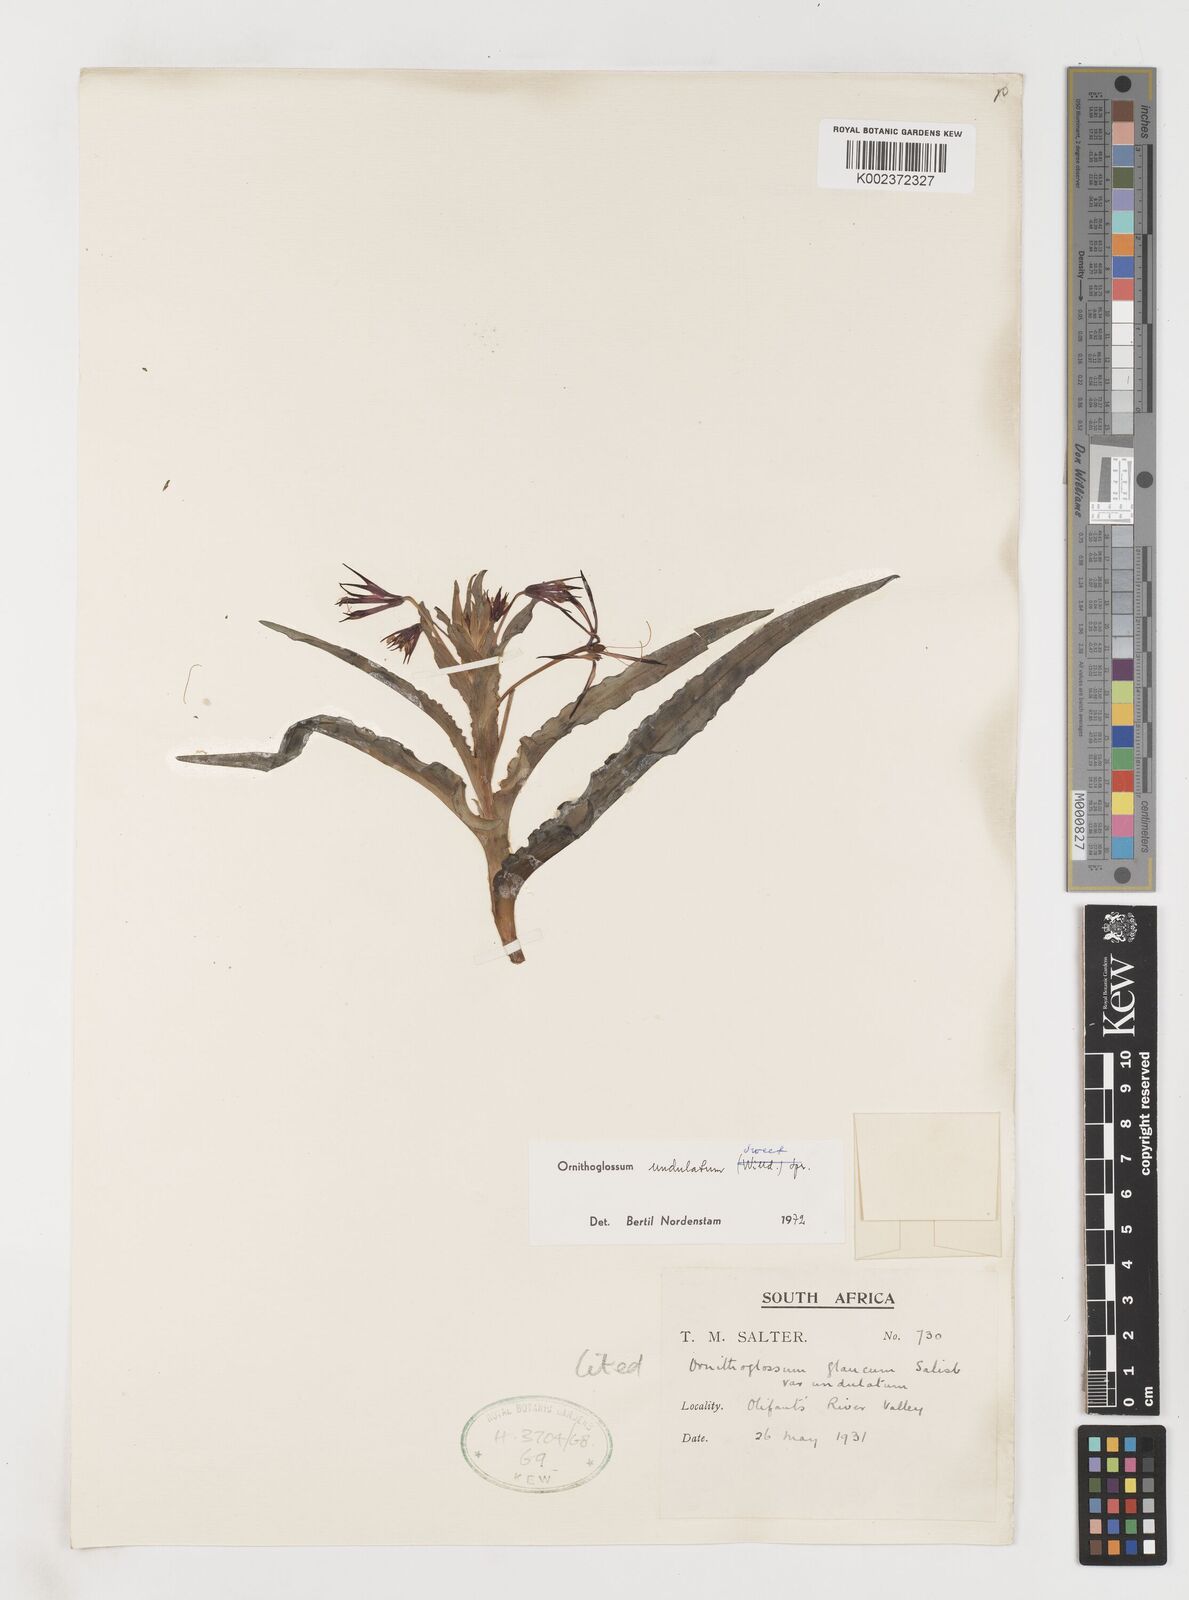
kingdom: Plantae
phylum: Tracheophyta
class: Liliopsida
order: Liliales
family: Colchicaceae
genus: Ornithoglossum
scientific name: Ornithoglossum undulatum
